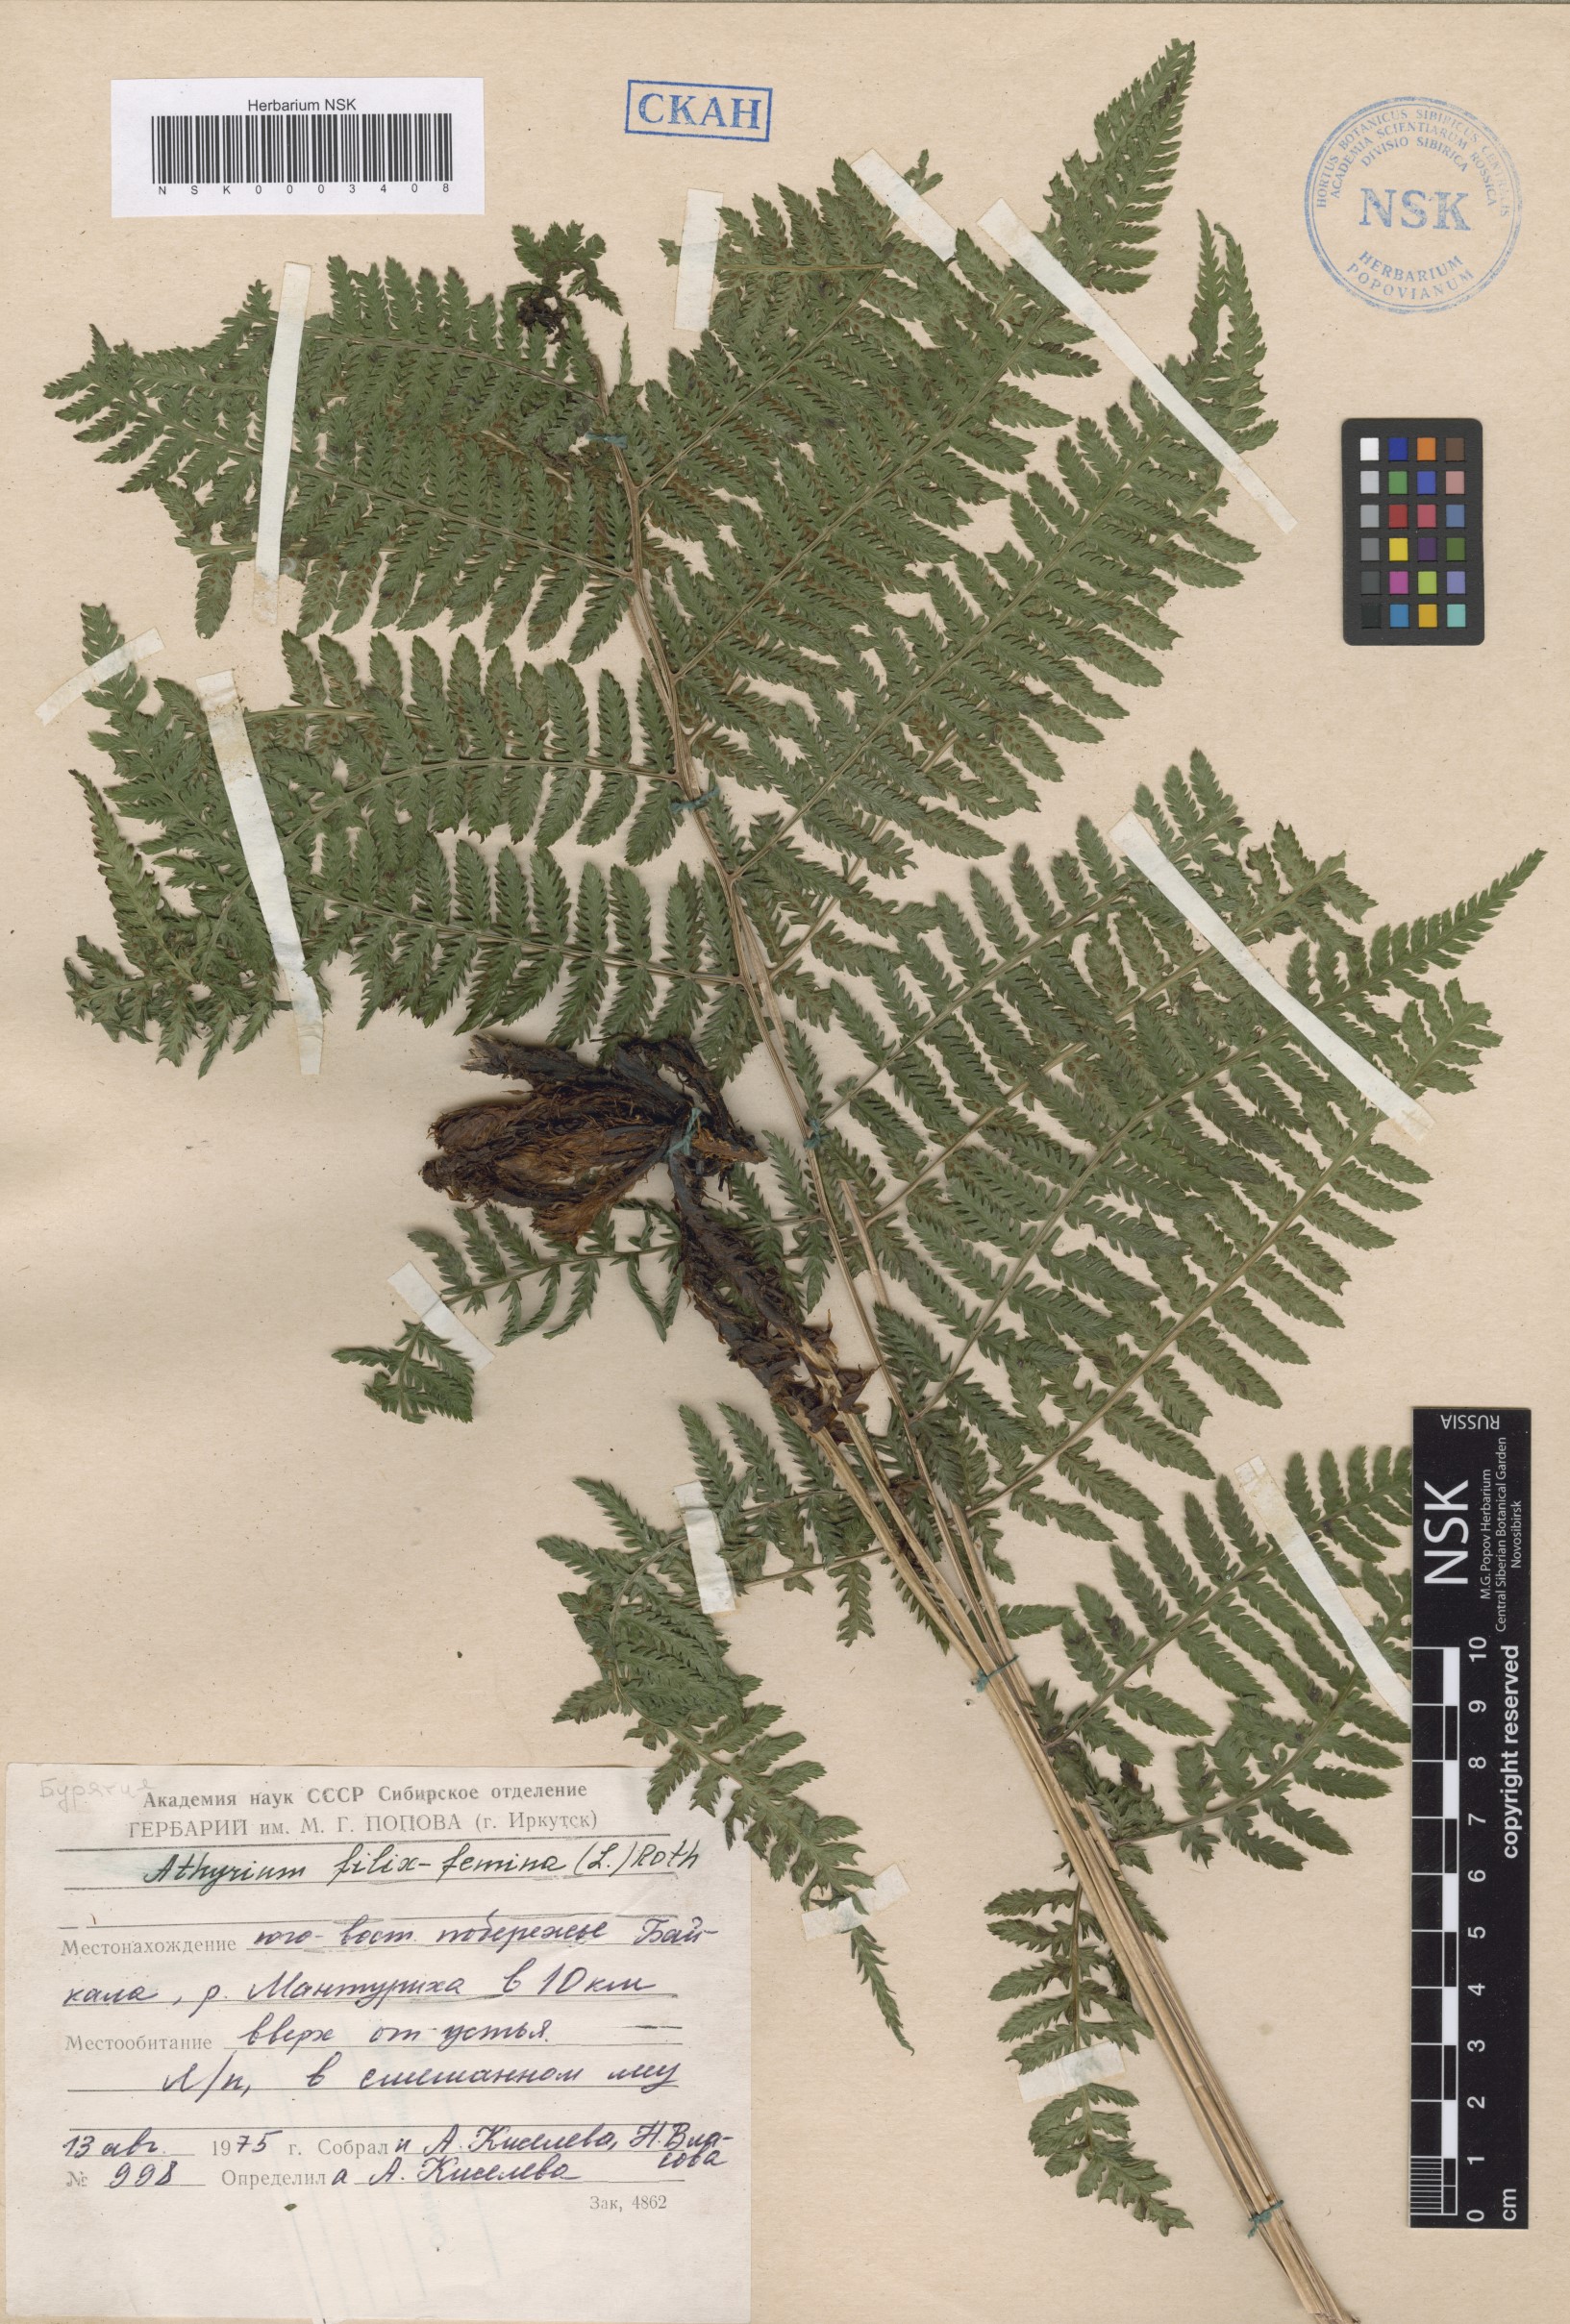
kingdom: Plantae
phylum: Tracheophyta
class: Polypodiopsida
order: Polypodiales
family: Athyriaceae
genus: Athyrium
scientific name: Athyrium filix-femina
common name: Lady fern
